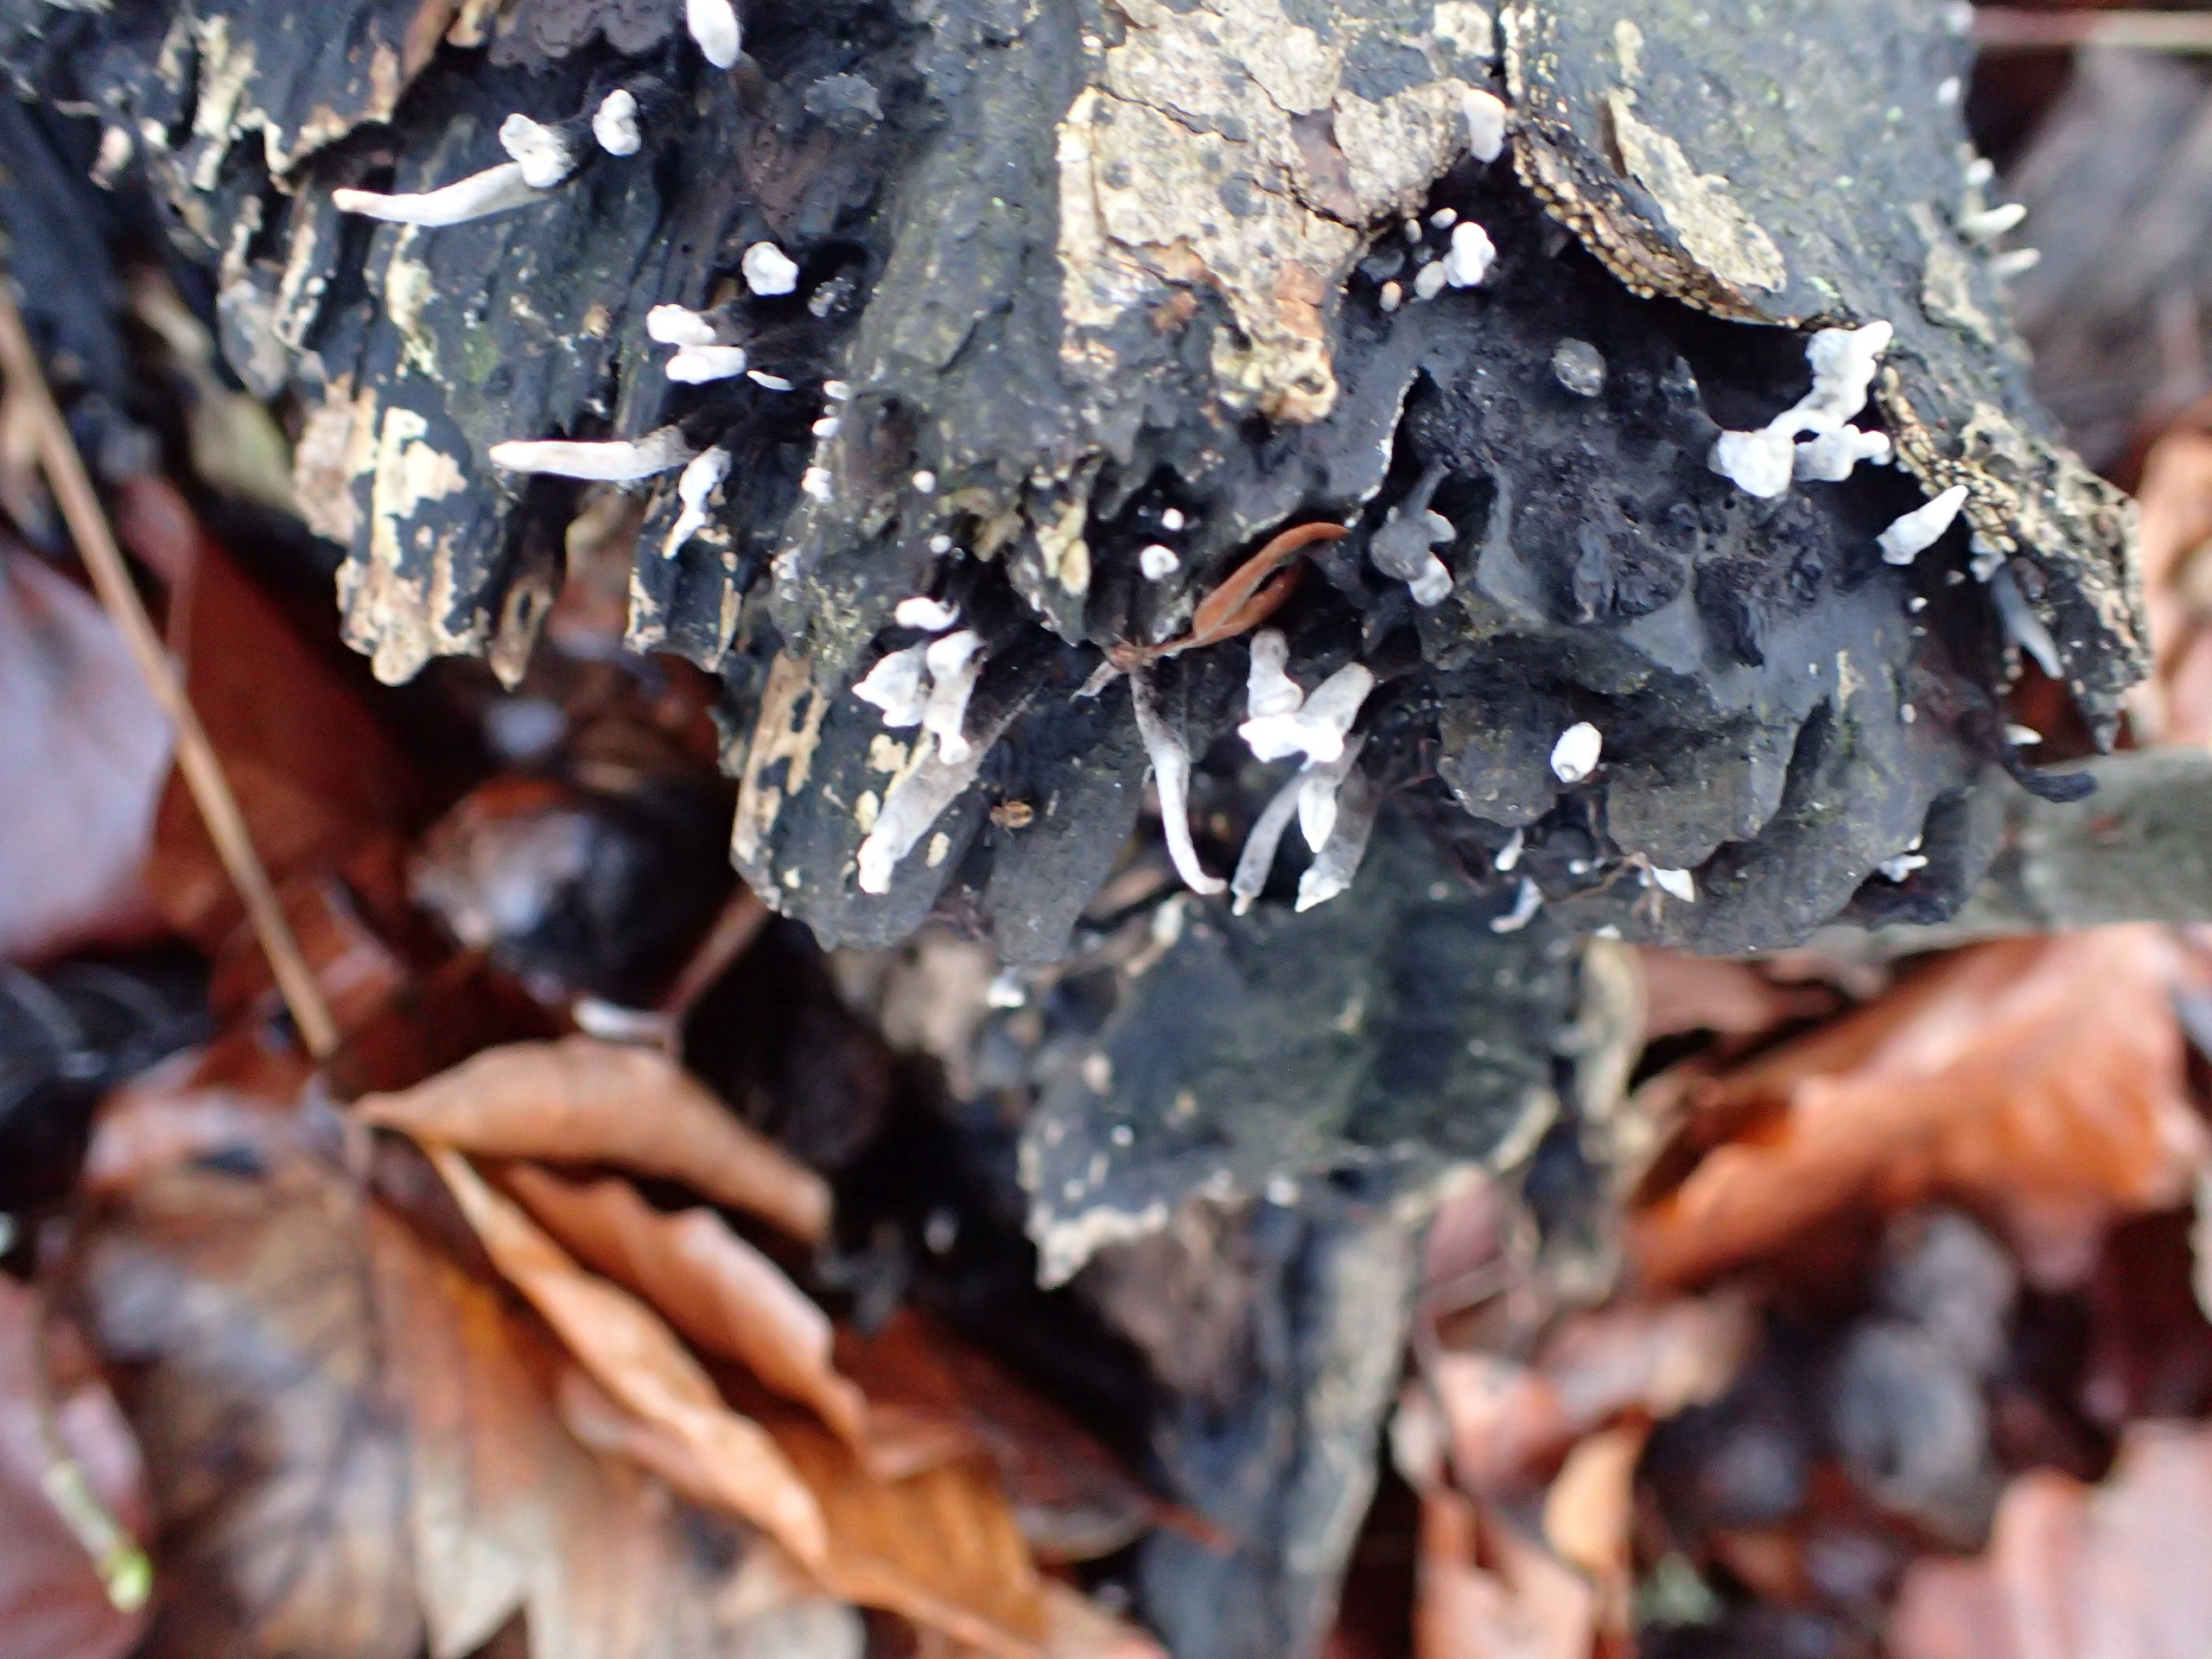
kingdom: Fungi
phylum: Ascomycota
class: Sordariomycetes
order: Xylariales
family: Xylariaceae
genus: Xylaria
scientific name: Xylaria hypoxylon
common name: Grenet stødsvamp
